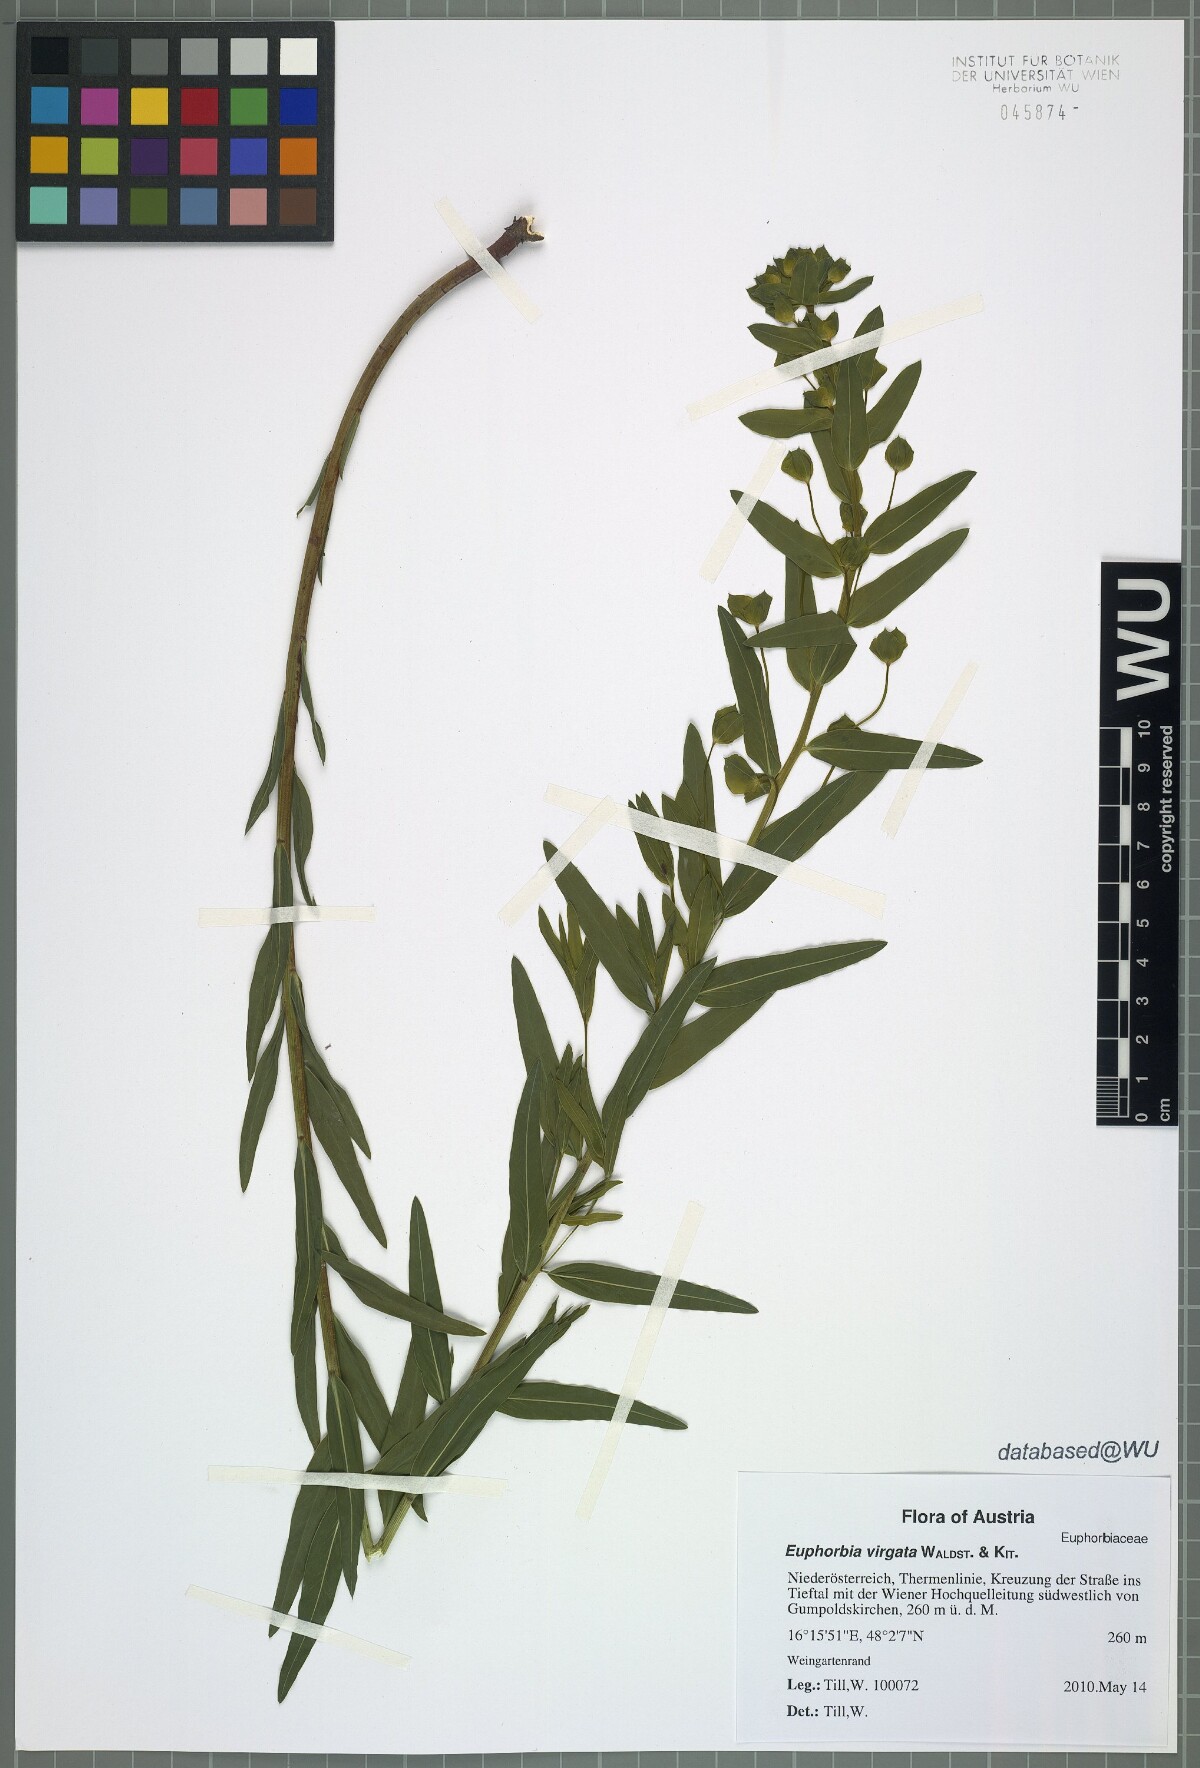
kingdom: Plantae
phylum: Tracheophyta
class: Magnoliopsida
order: Malpighiales
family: Euphorbiaceae
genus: Euphorbia
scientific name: Euphorbia virgata
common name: Leafy spurge
